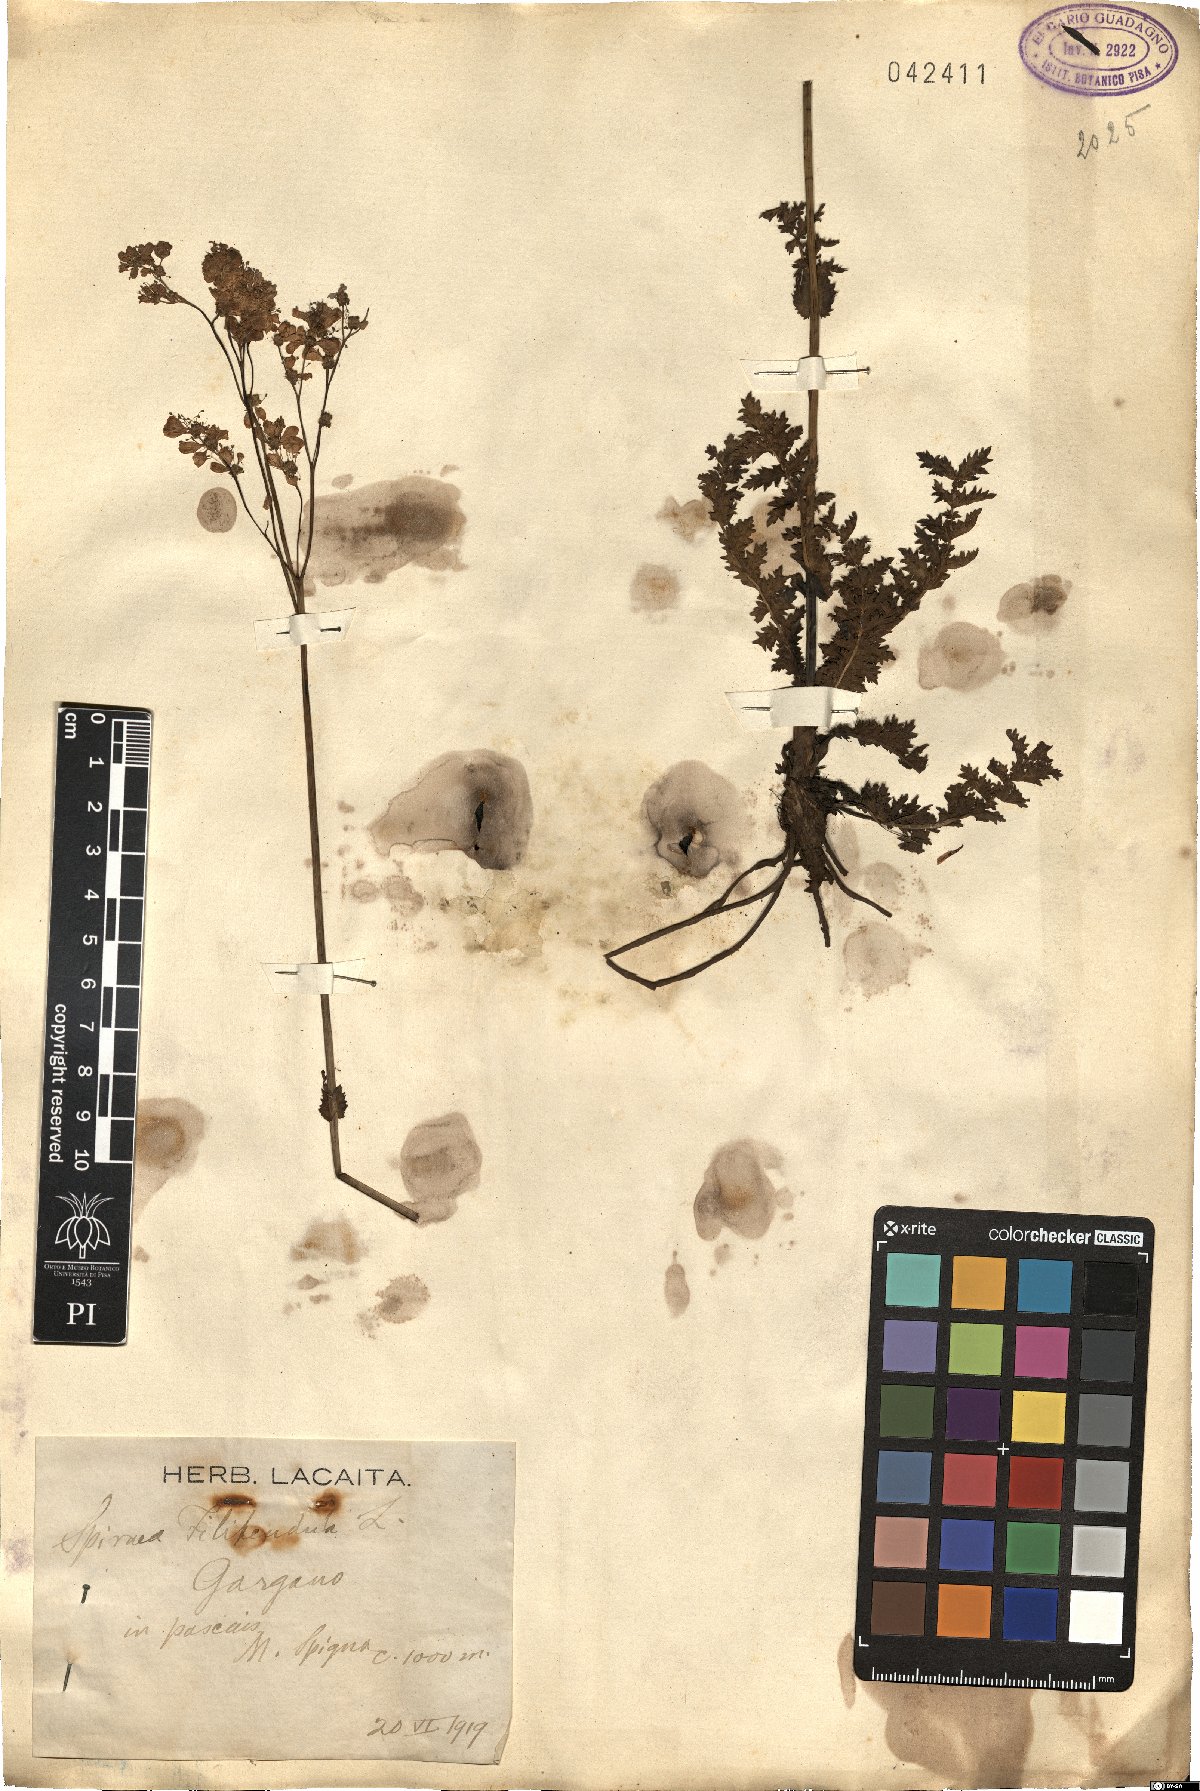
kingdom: Plantae
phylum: Tracheophyta
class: Magnoliopsida
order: Rosales
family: Rosaceae
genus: Filipendula
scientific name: Filipendula vulgaris
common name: Dropwort
